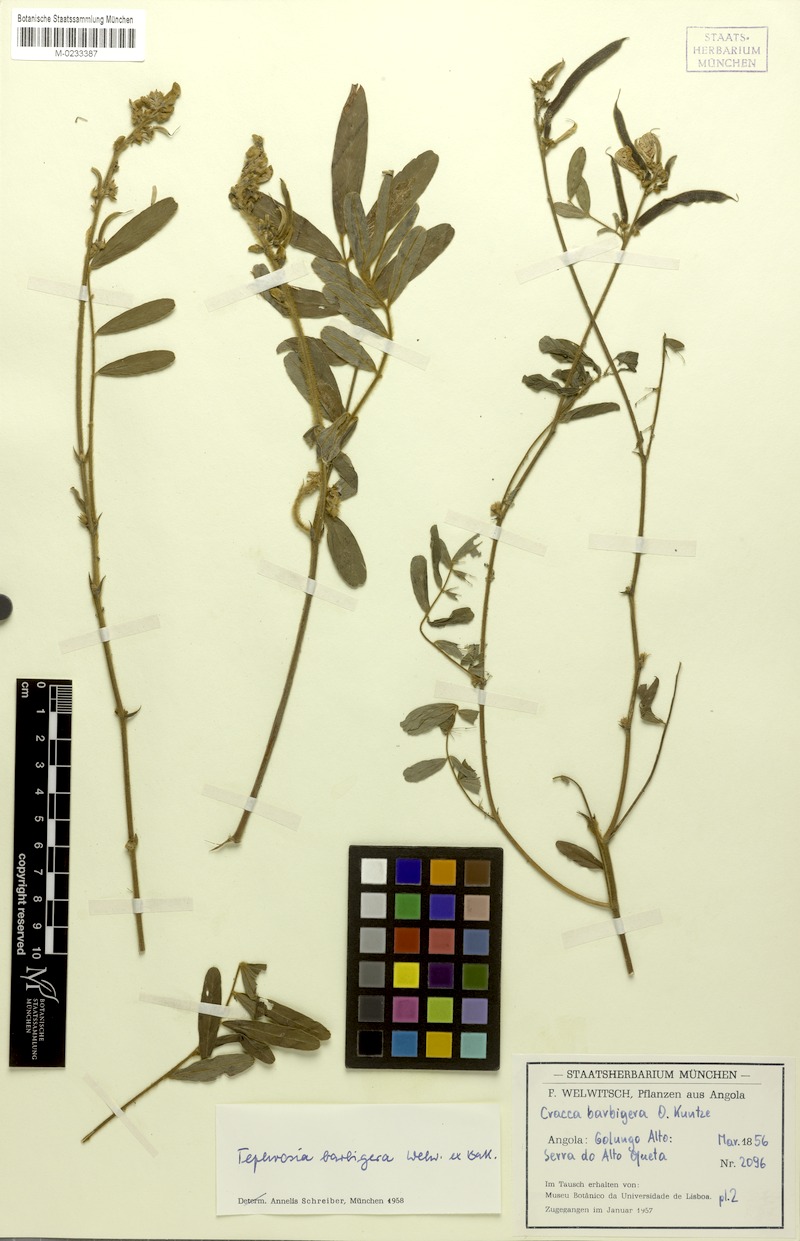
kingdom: Plantae
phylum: Tracheophyta
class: Magnoliopsida
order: Fabales
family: Fabaceae
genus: Tephrosia
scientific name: Tephrosia nana
